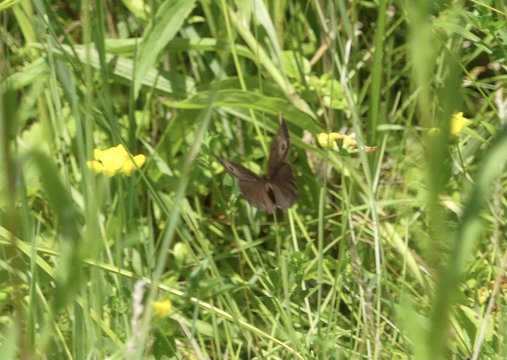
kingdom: Animalia
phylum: Arthropoda
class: Insecta
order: Lepidoptera
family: Nymphalidae
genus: Cercyonis
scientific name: Cercyonis pegala
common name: Common Wood-Nymph
